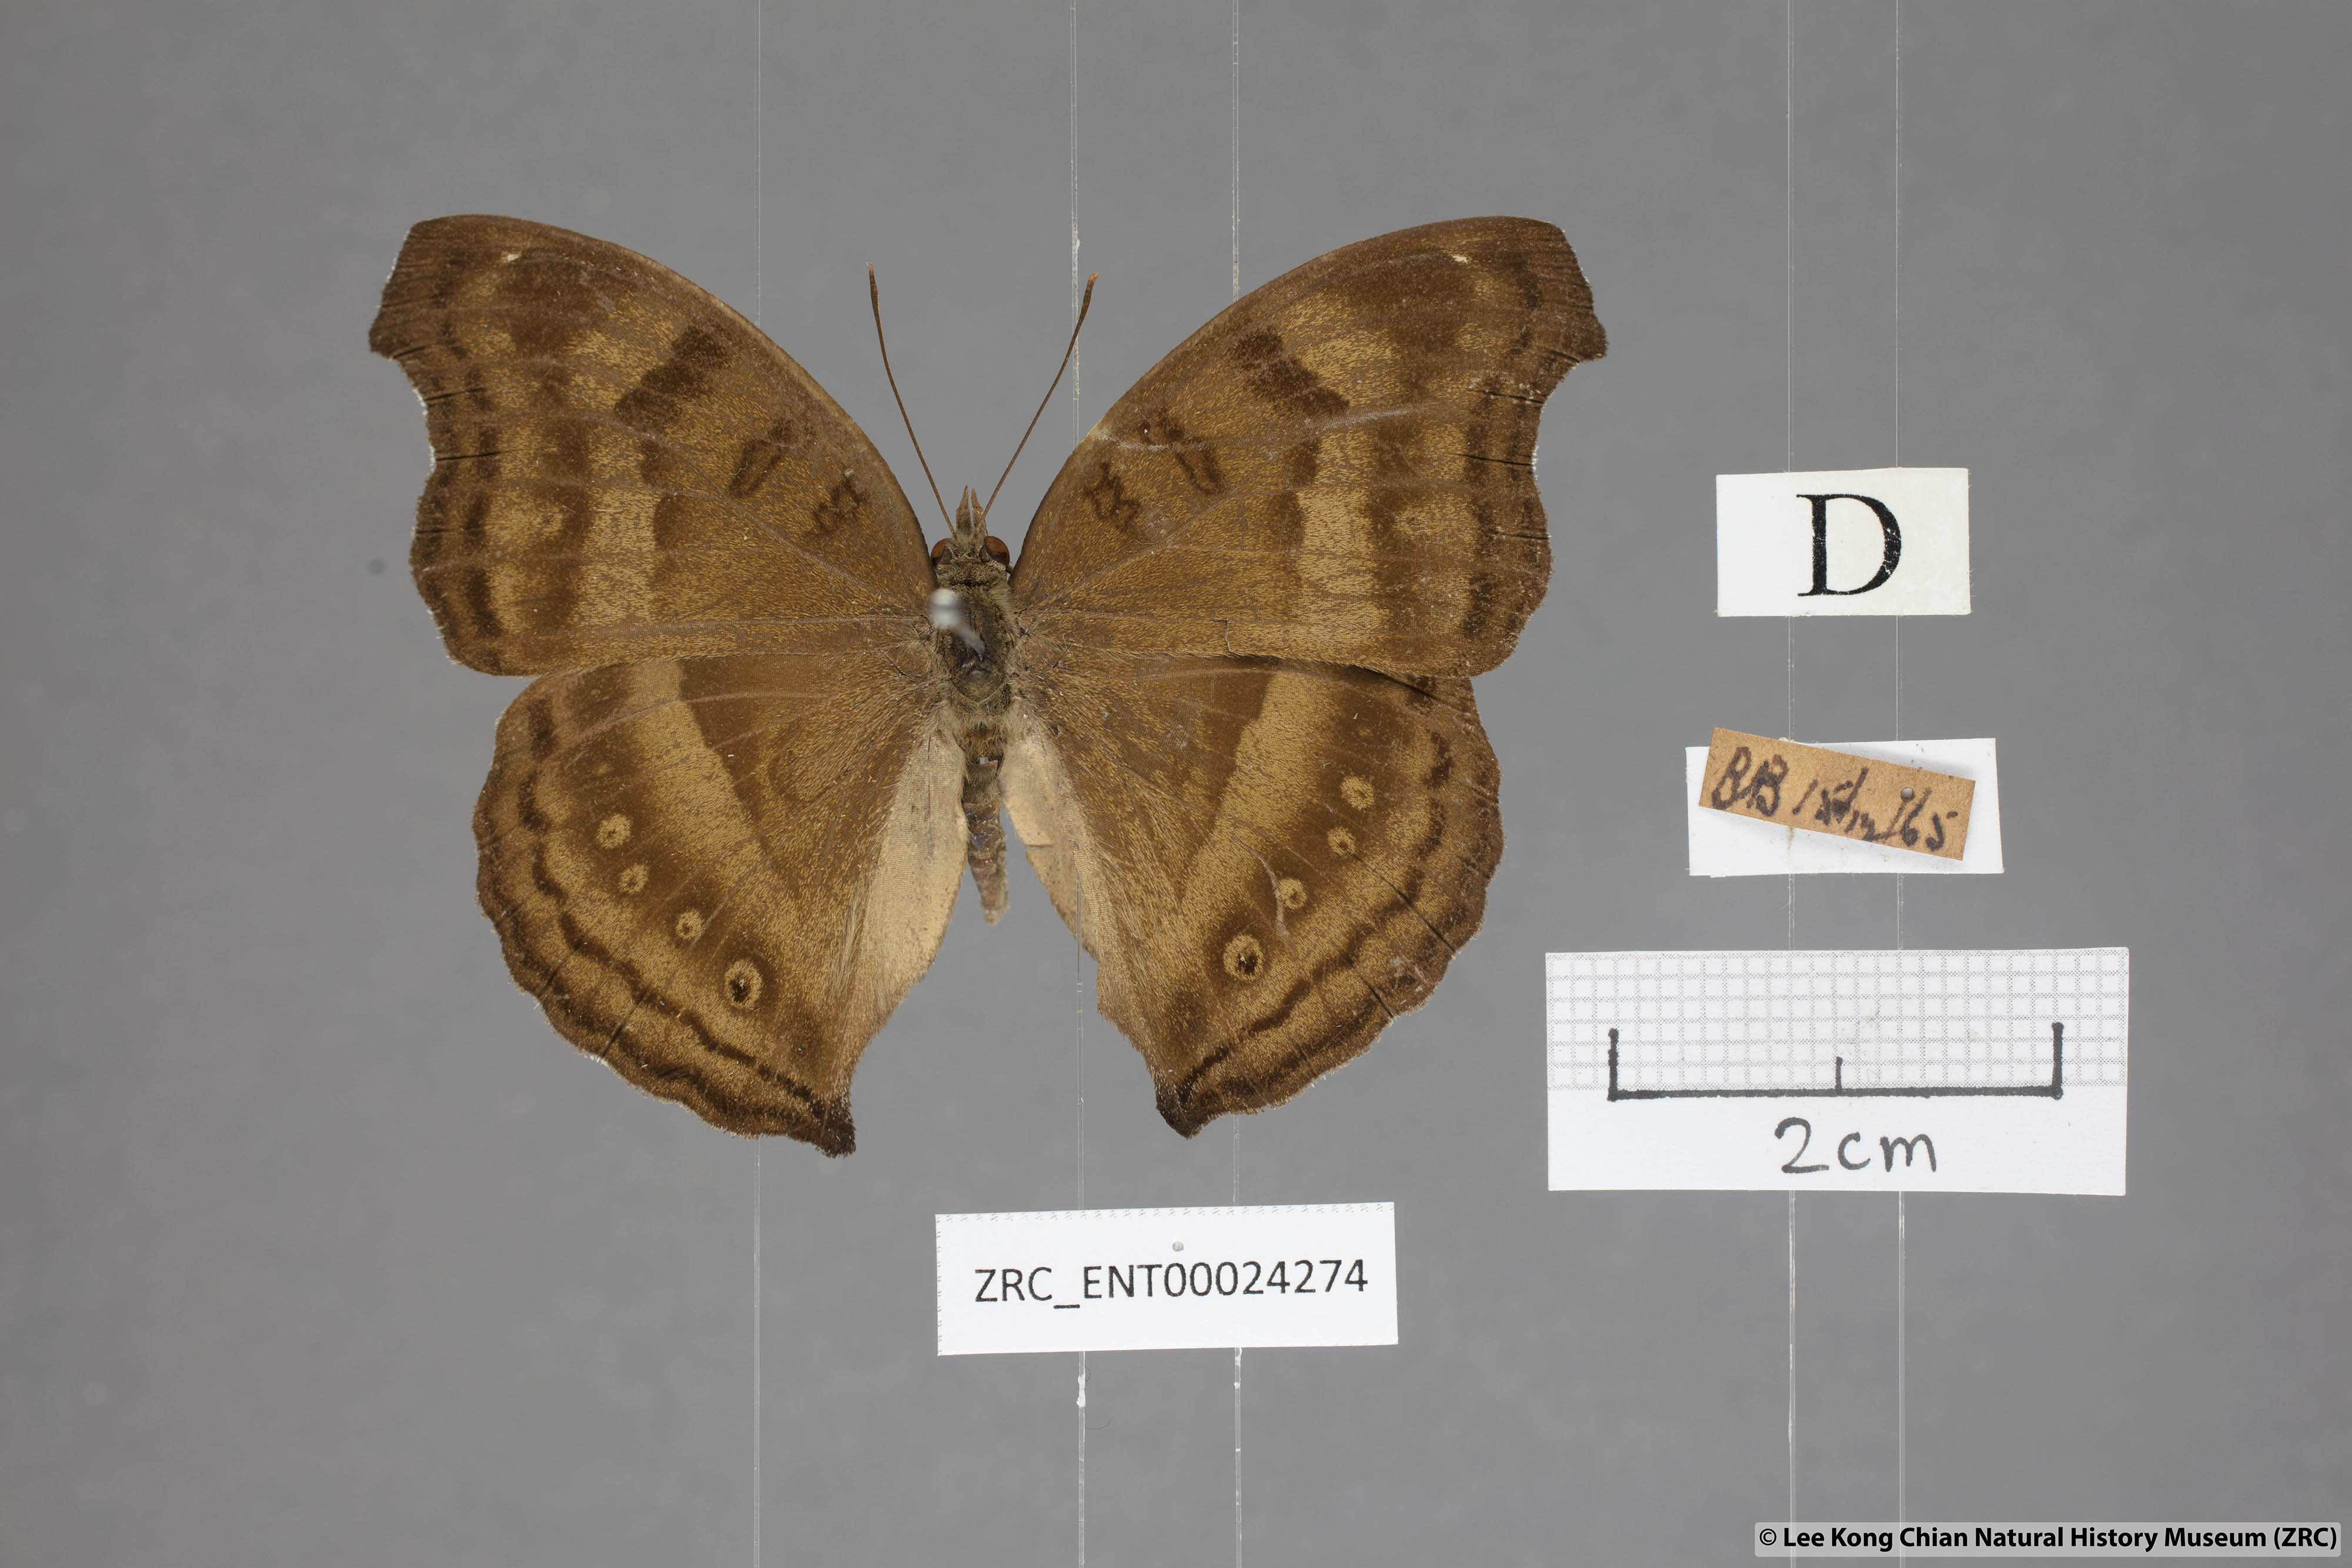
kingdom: Animalia
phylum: Arthropoda
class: Insecta
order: Lepidoptera
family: Nymphalidae
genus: Junonia
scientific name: Junonia iphita
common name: Chocolate pansy
